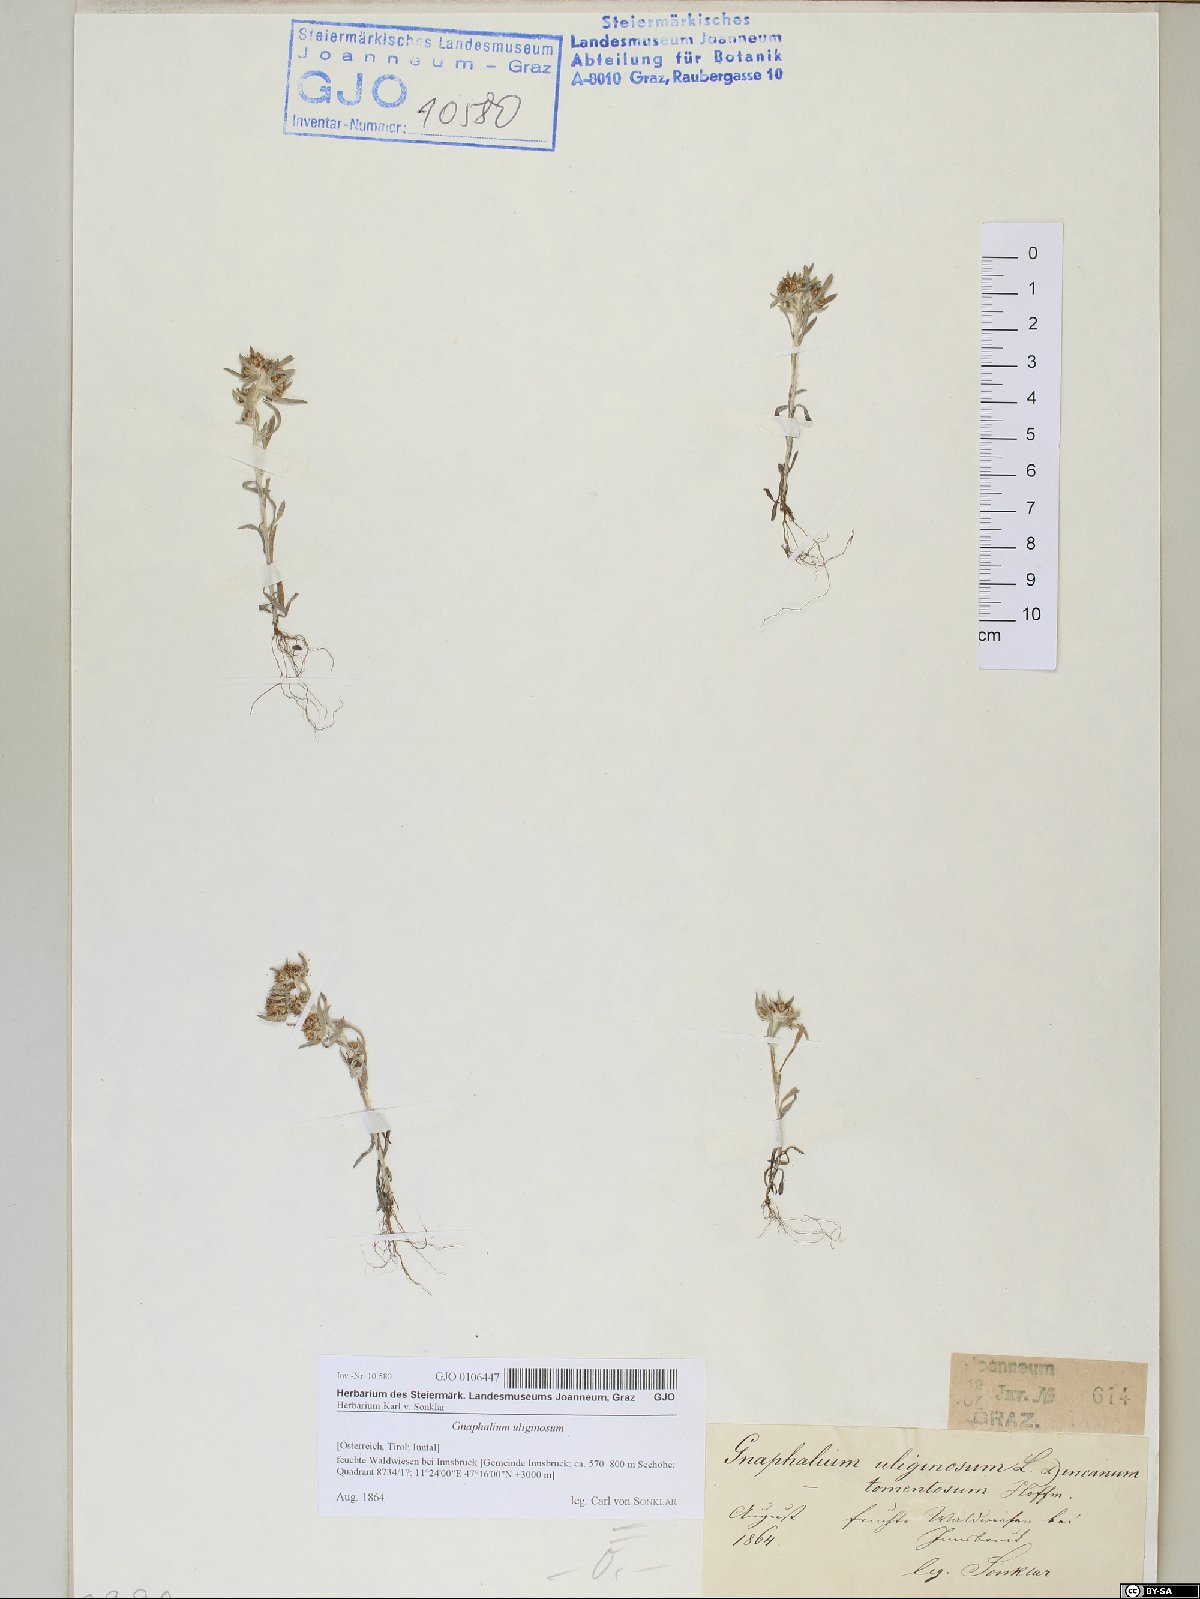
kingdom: Plantae
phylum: Tracheophyta
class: Magnoliopsida
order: Asterales
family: Asteraceae
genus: Gnaphalium
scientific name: Gnaphalium uliginosum
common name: Marsh cudweed
